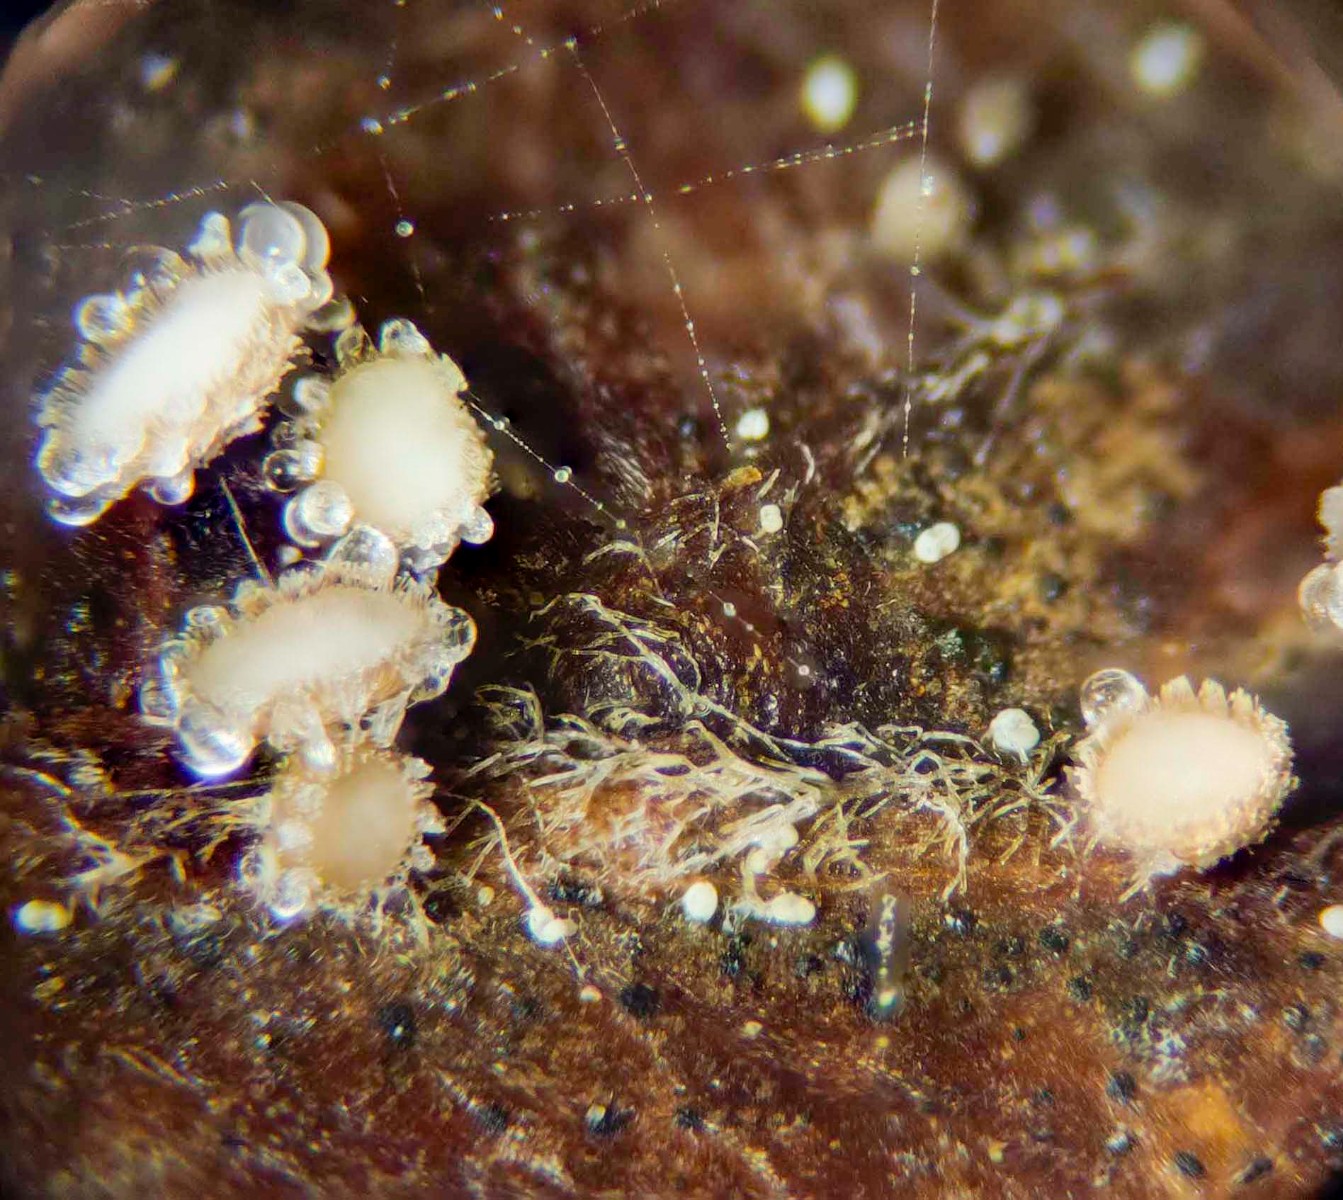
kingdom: Fungi
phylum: Ascomycota
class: Leotiomycetes
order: Helotiales
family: Lachnaceae
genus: Brunnipila
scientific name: Brunnipila fuscescens
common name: bøge-frynseskive
